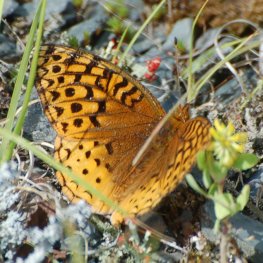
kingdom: Animalia
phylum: Arthropoda
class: Insecta
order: Lepidoptera
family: Nymphalidae
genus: Speyeria
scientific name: Speyeria cybele
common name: Great Spangled Fritillary
